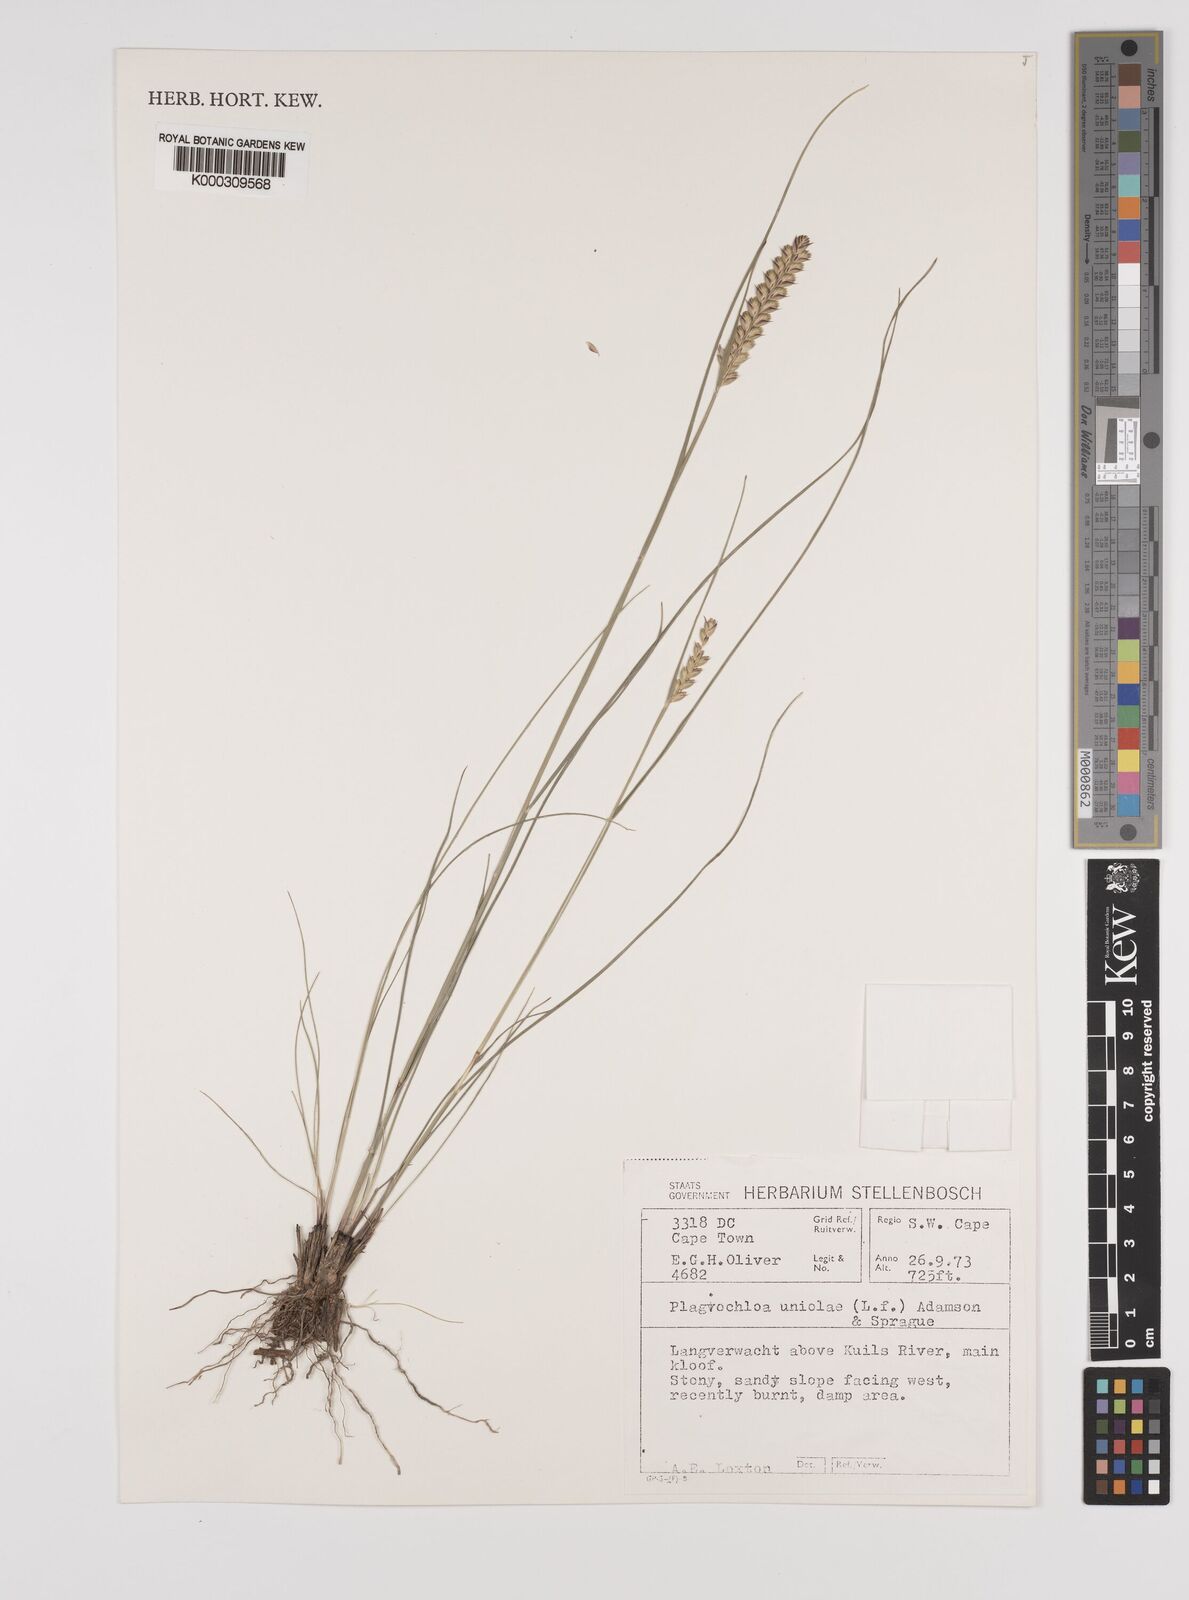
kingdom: Plantae
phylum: Tracheophyta
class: Liliopsida
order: Poales
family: Poaceae
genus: Tribolium
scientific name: Tribolium amplexum
